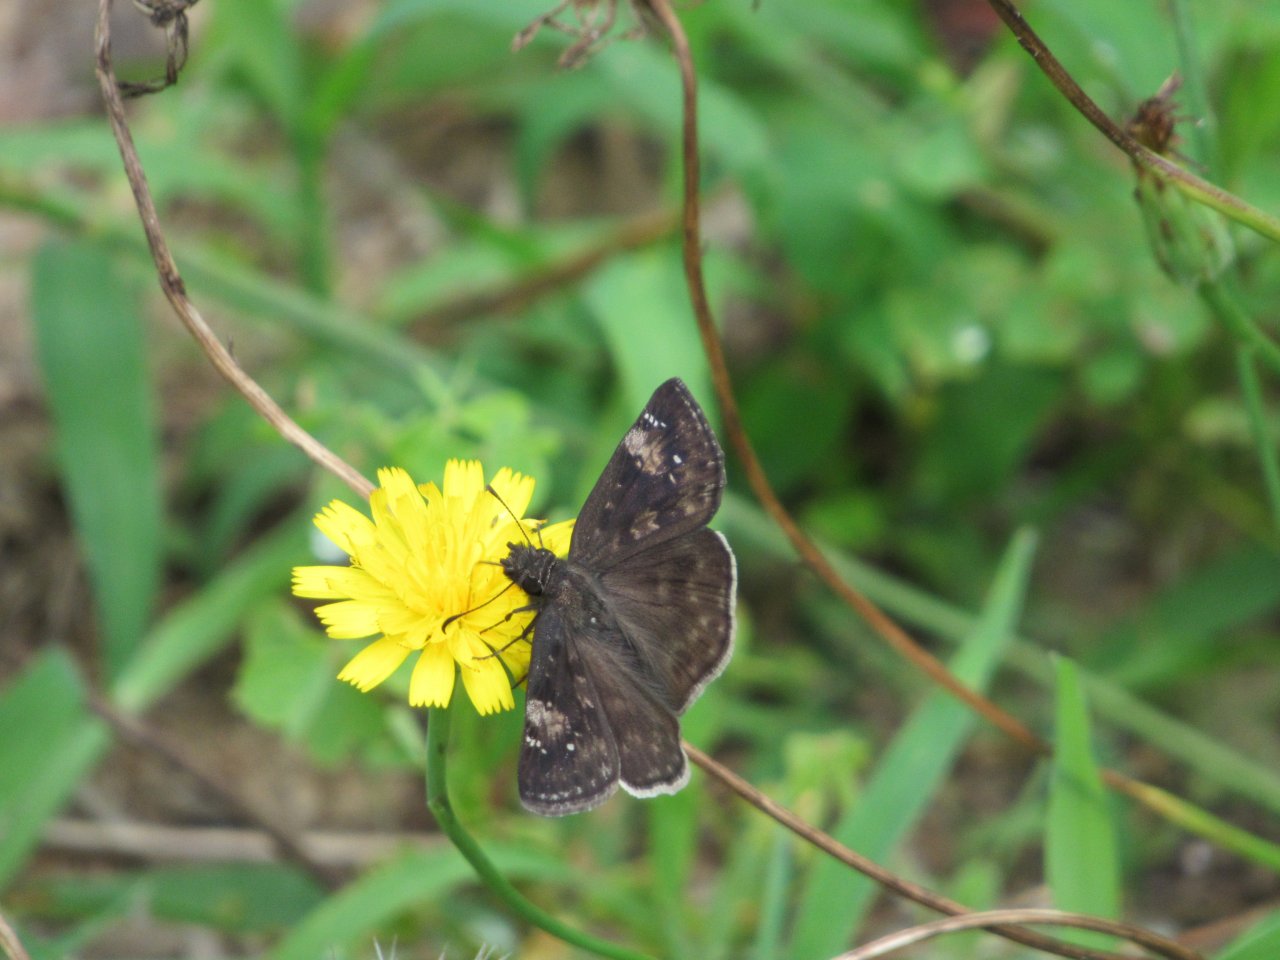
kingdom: Animalia
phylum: Arthropoda
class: Insecta
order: Lepidoptera
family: Hesperiidae
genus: Erynnis
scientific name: Erynnis zarucco
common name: Zarucco Duskywing
